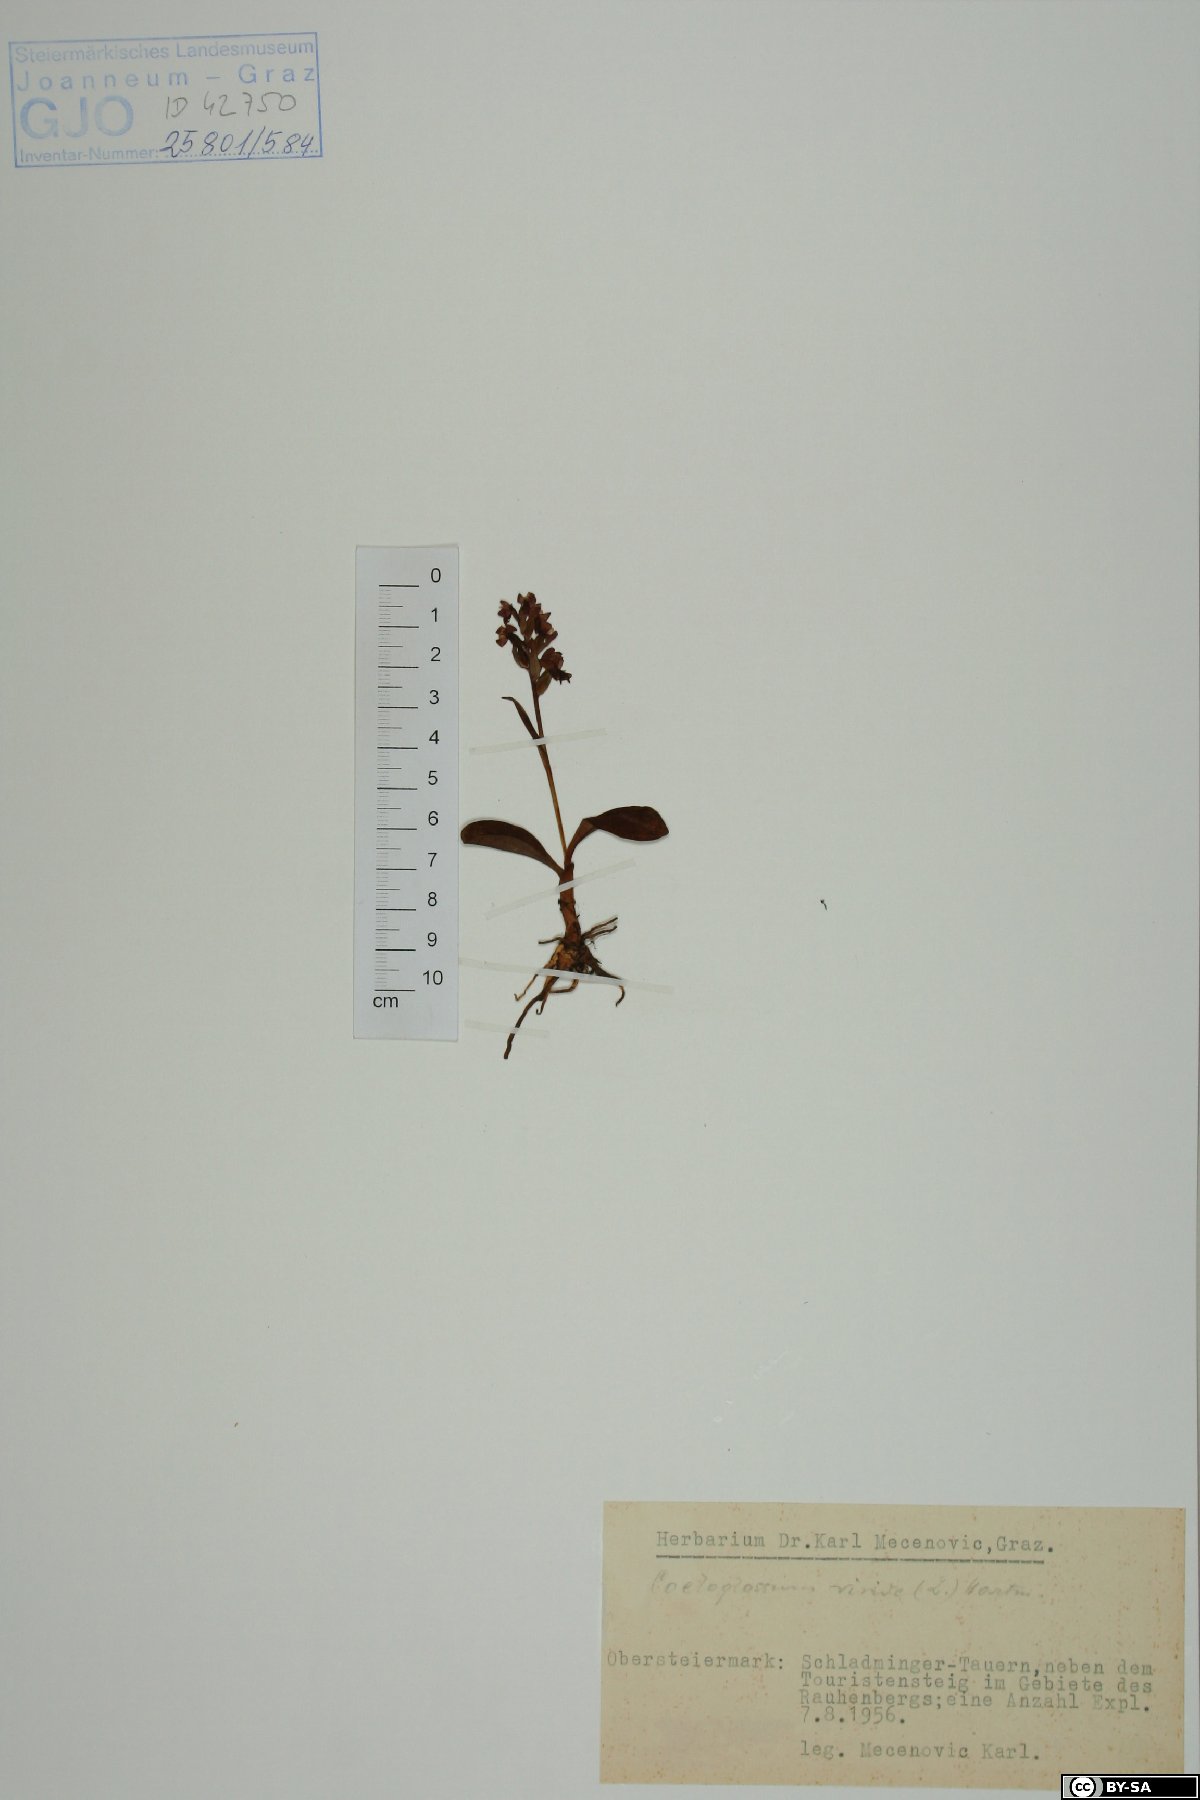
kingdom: Plantae
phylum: Tracheophyta
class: Liliopsida
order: Asparagales
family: Orchidaceae
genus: Dactylorhiza
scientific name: Dactylorhiza viridis
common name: Longbract frog orchid
